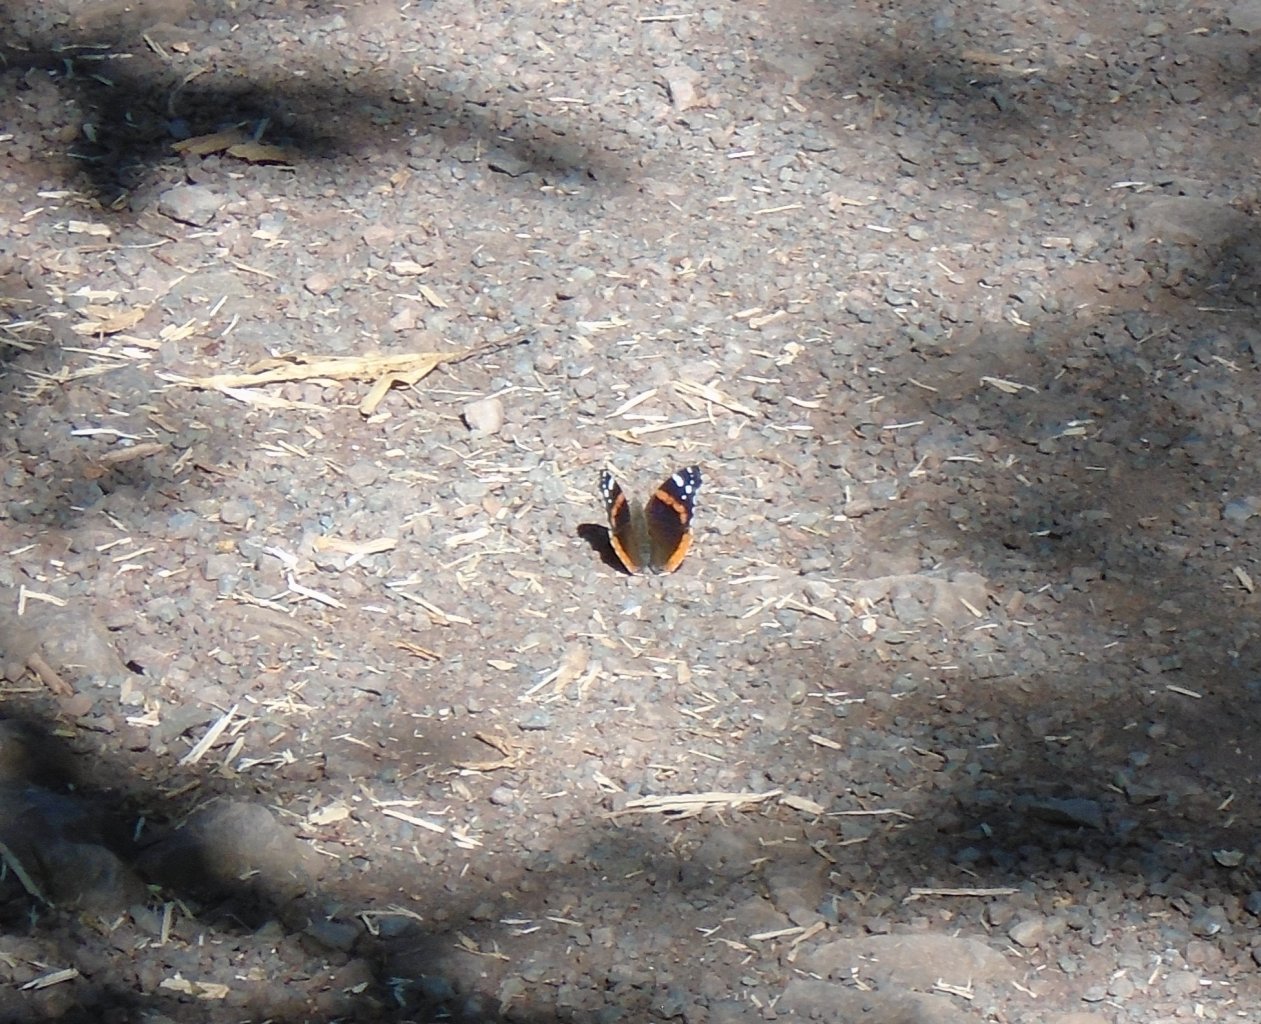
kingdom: Animalia
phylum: Arthropoda
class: Insecta
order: Lepidoptera
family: Nymphalidae
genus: Vanessa
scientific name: Vanessa atalanta
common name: Red Admiral
